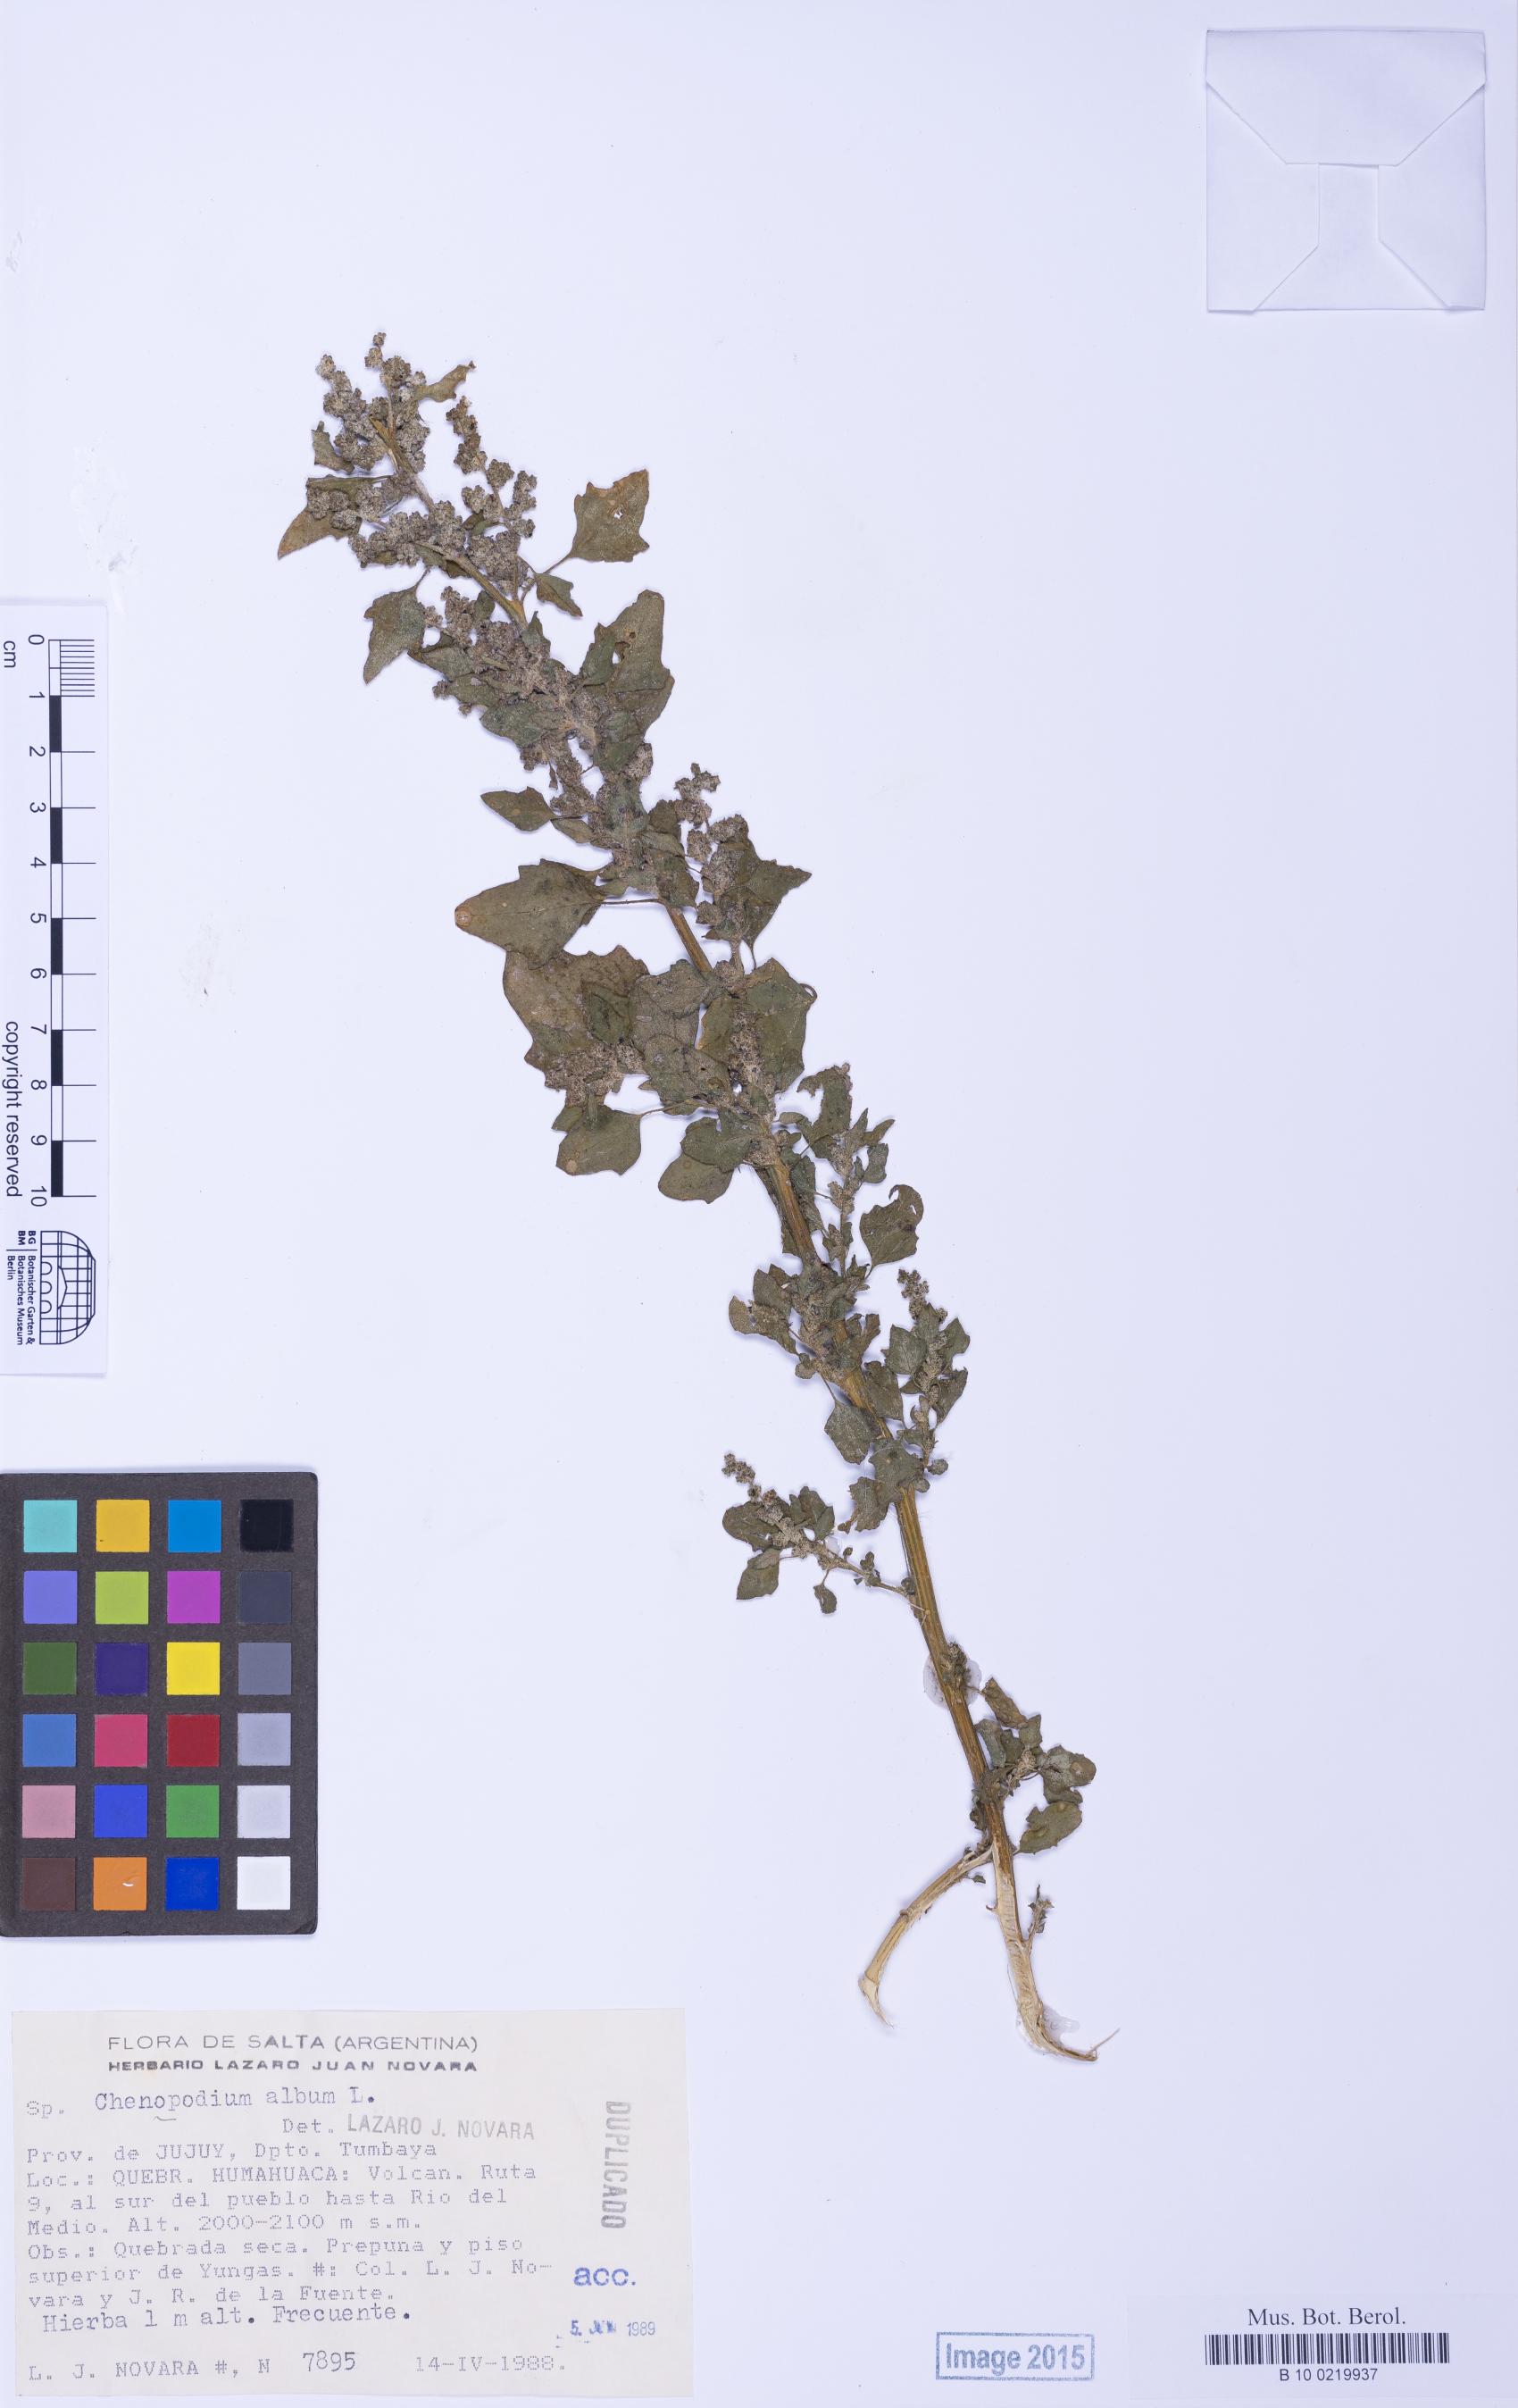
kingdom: Plantae
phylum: Tracheophyta
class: Magnoliopsida
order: Caryophyllales
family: Amaranthaceae
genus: Chenopodium
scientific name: Chenopodium hircinum
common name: Foetid goosefoot
